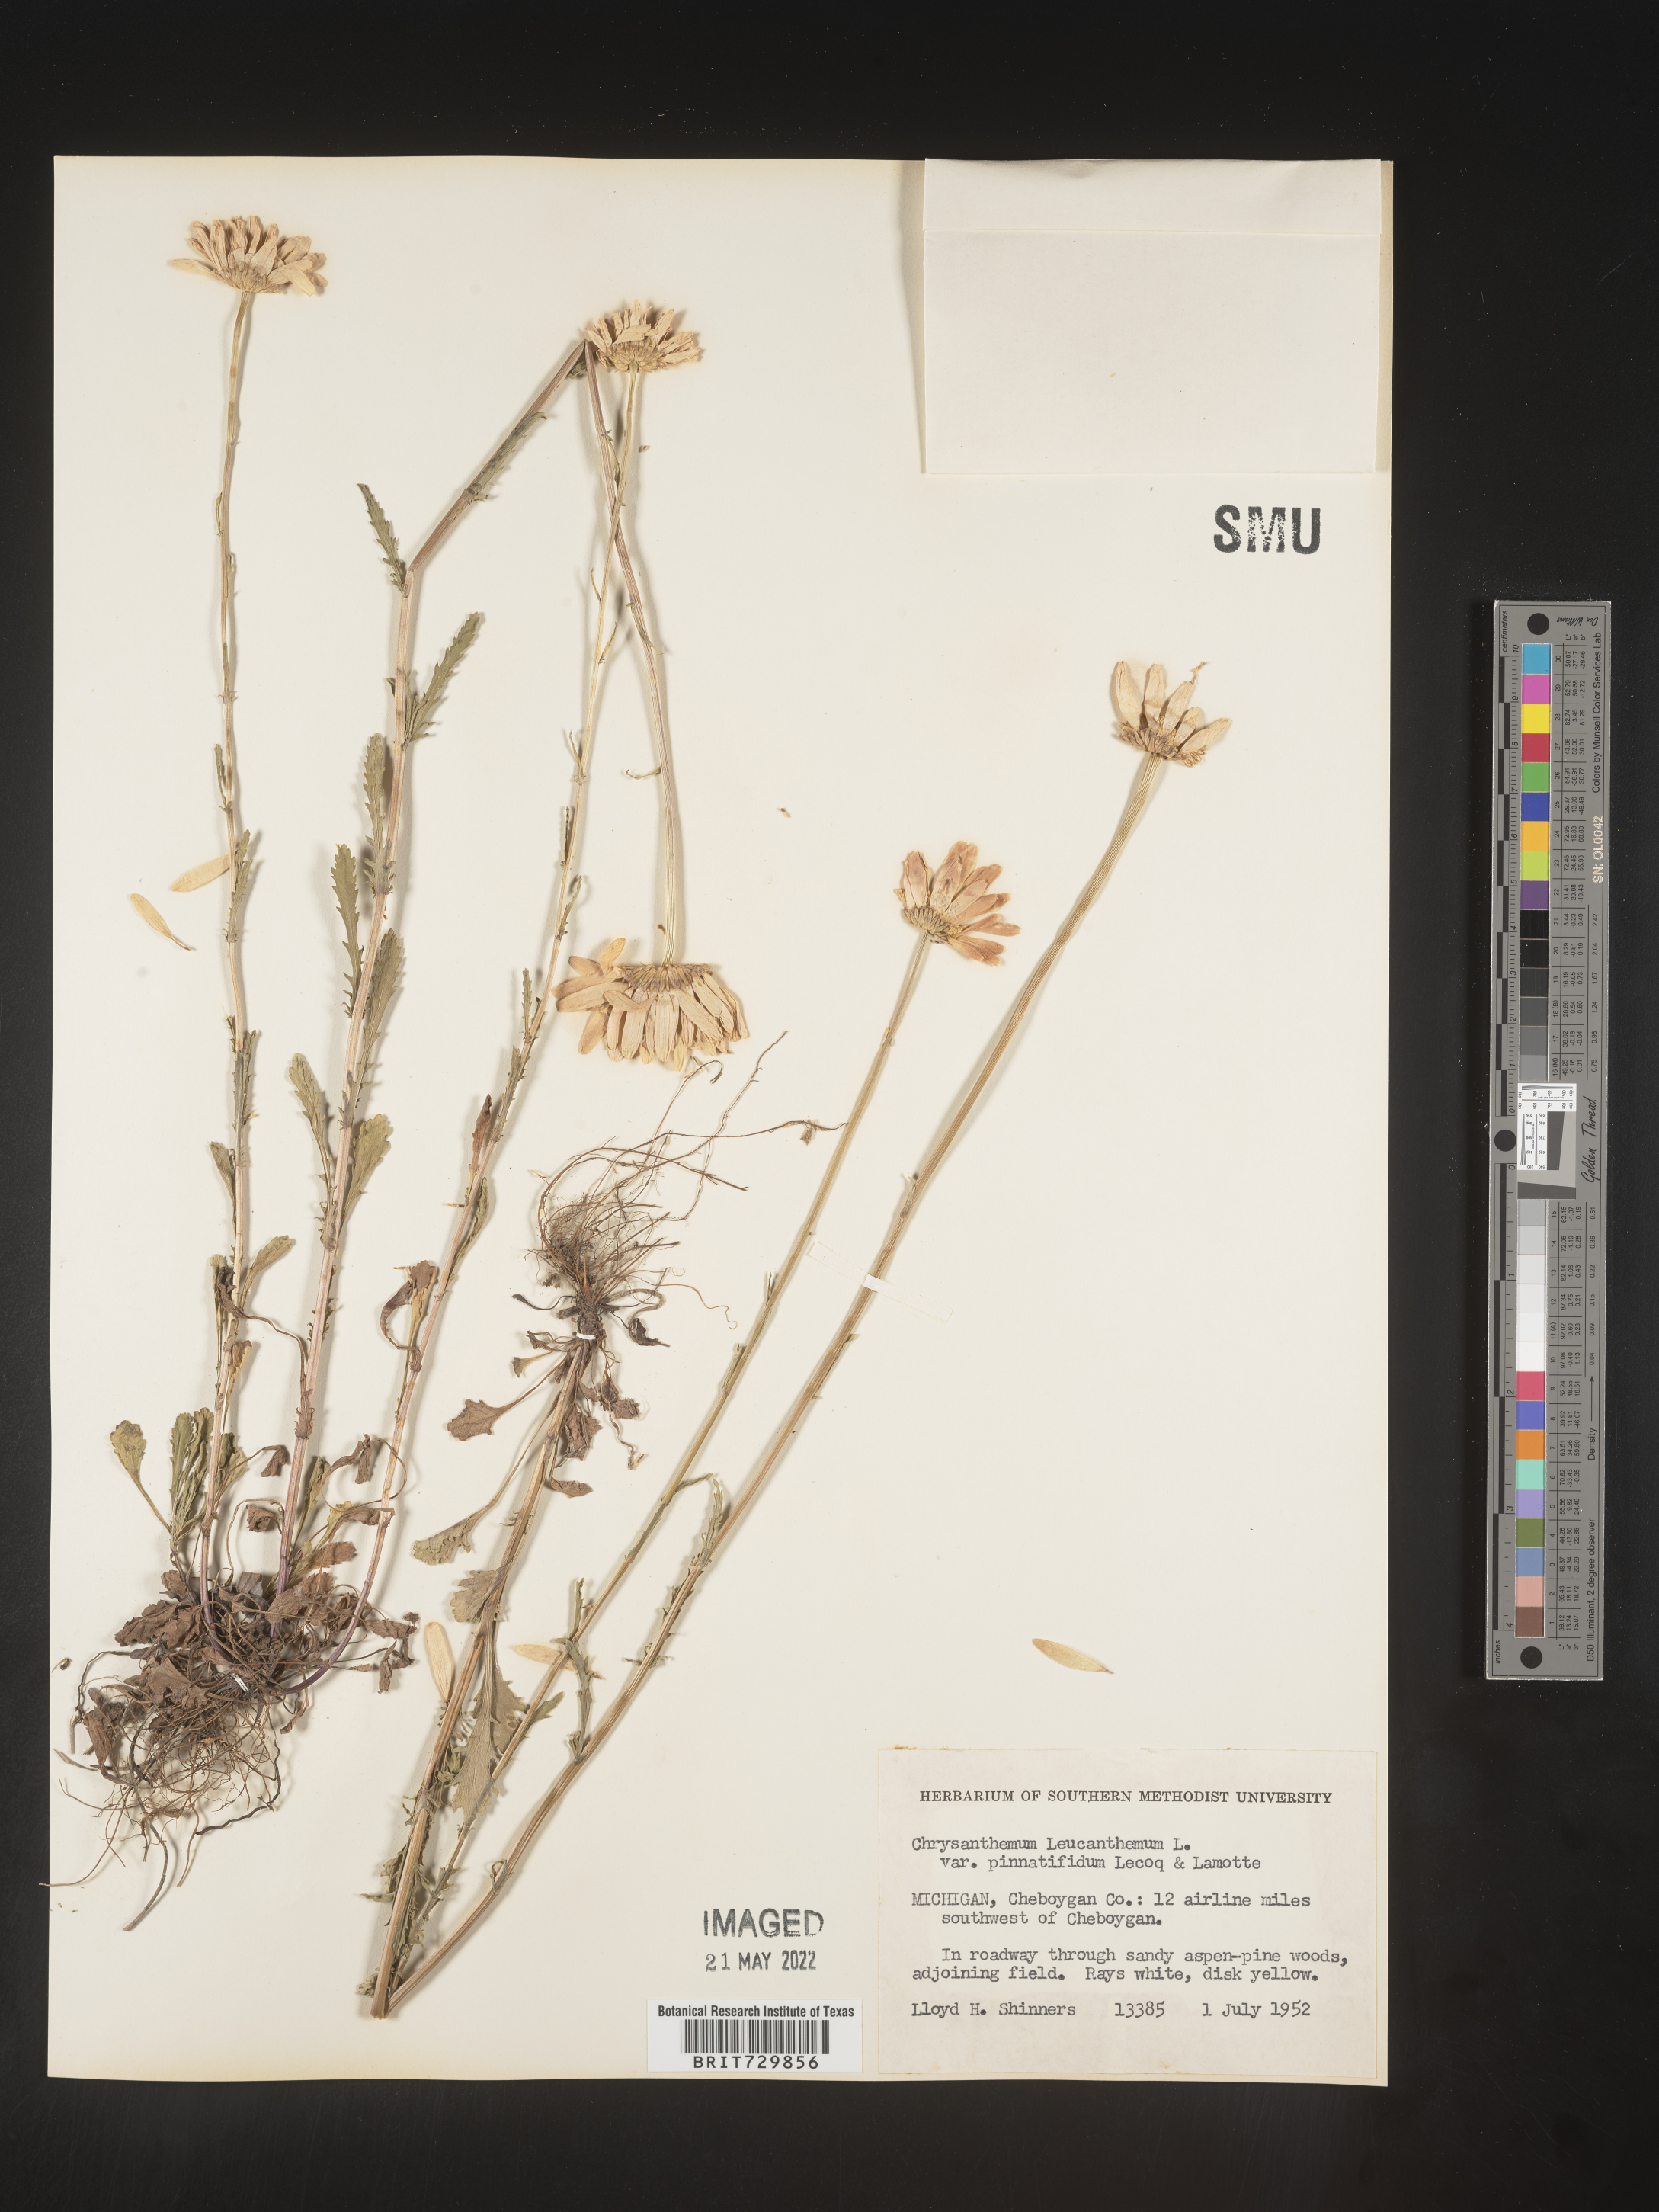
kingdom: Plantae
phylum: Tracheophyta
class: Magnoliopsida
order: Asterales
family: Asteraceae
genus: Leucanthemum
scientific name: Leucanthemum vulgare
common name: Oxeye daisy
